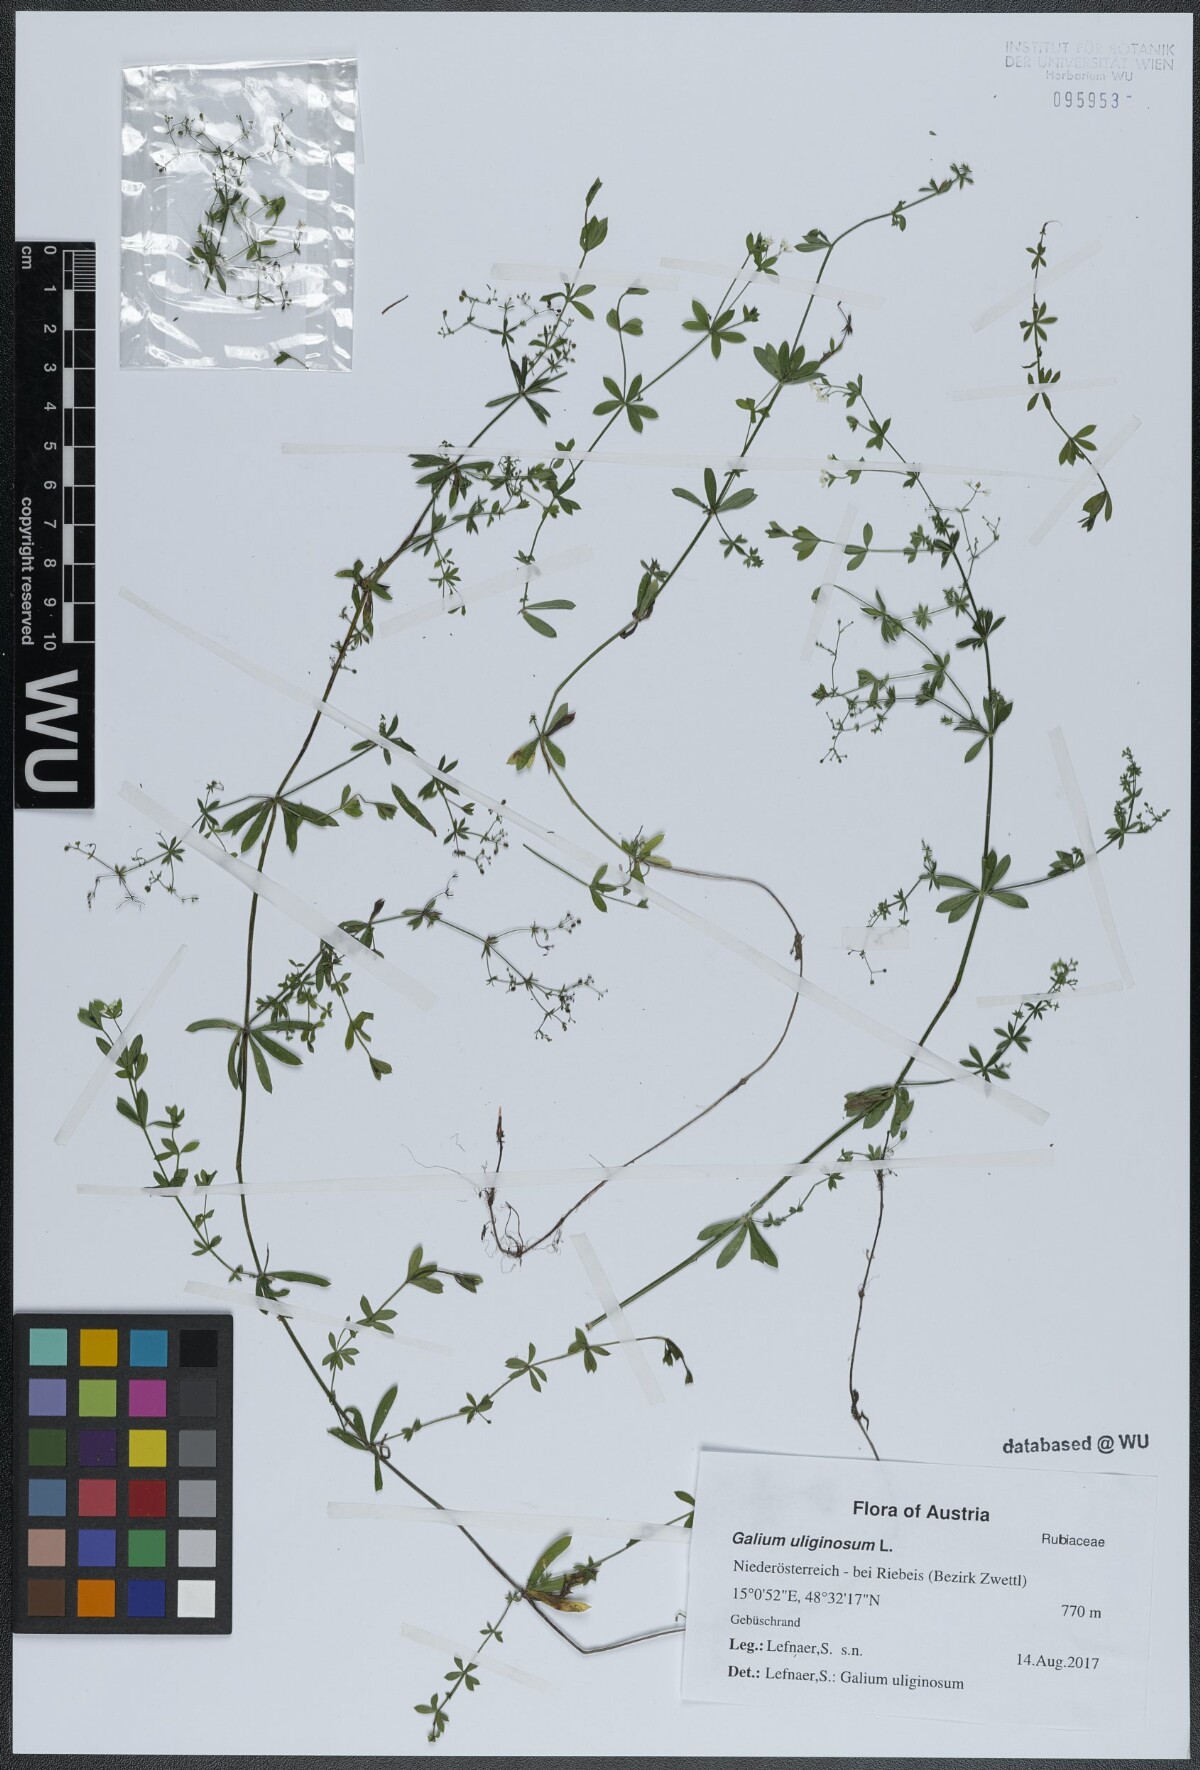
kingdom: Plantae
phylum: Tracheophyta
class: Magnoliopsida
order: Gentianales
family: Rubiaceae
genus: Galium
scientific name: Galium uliginosum
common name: Fen bedstraw
